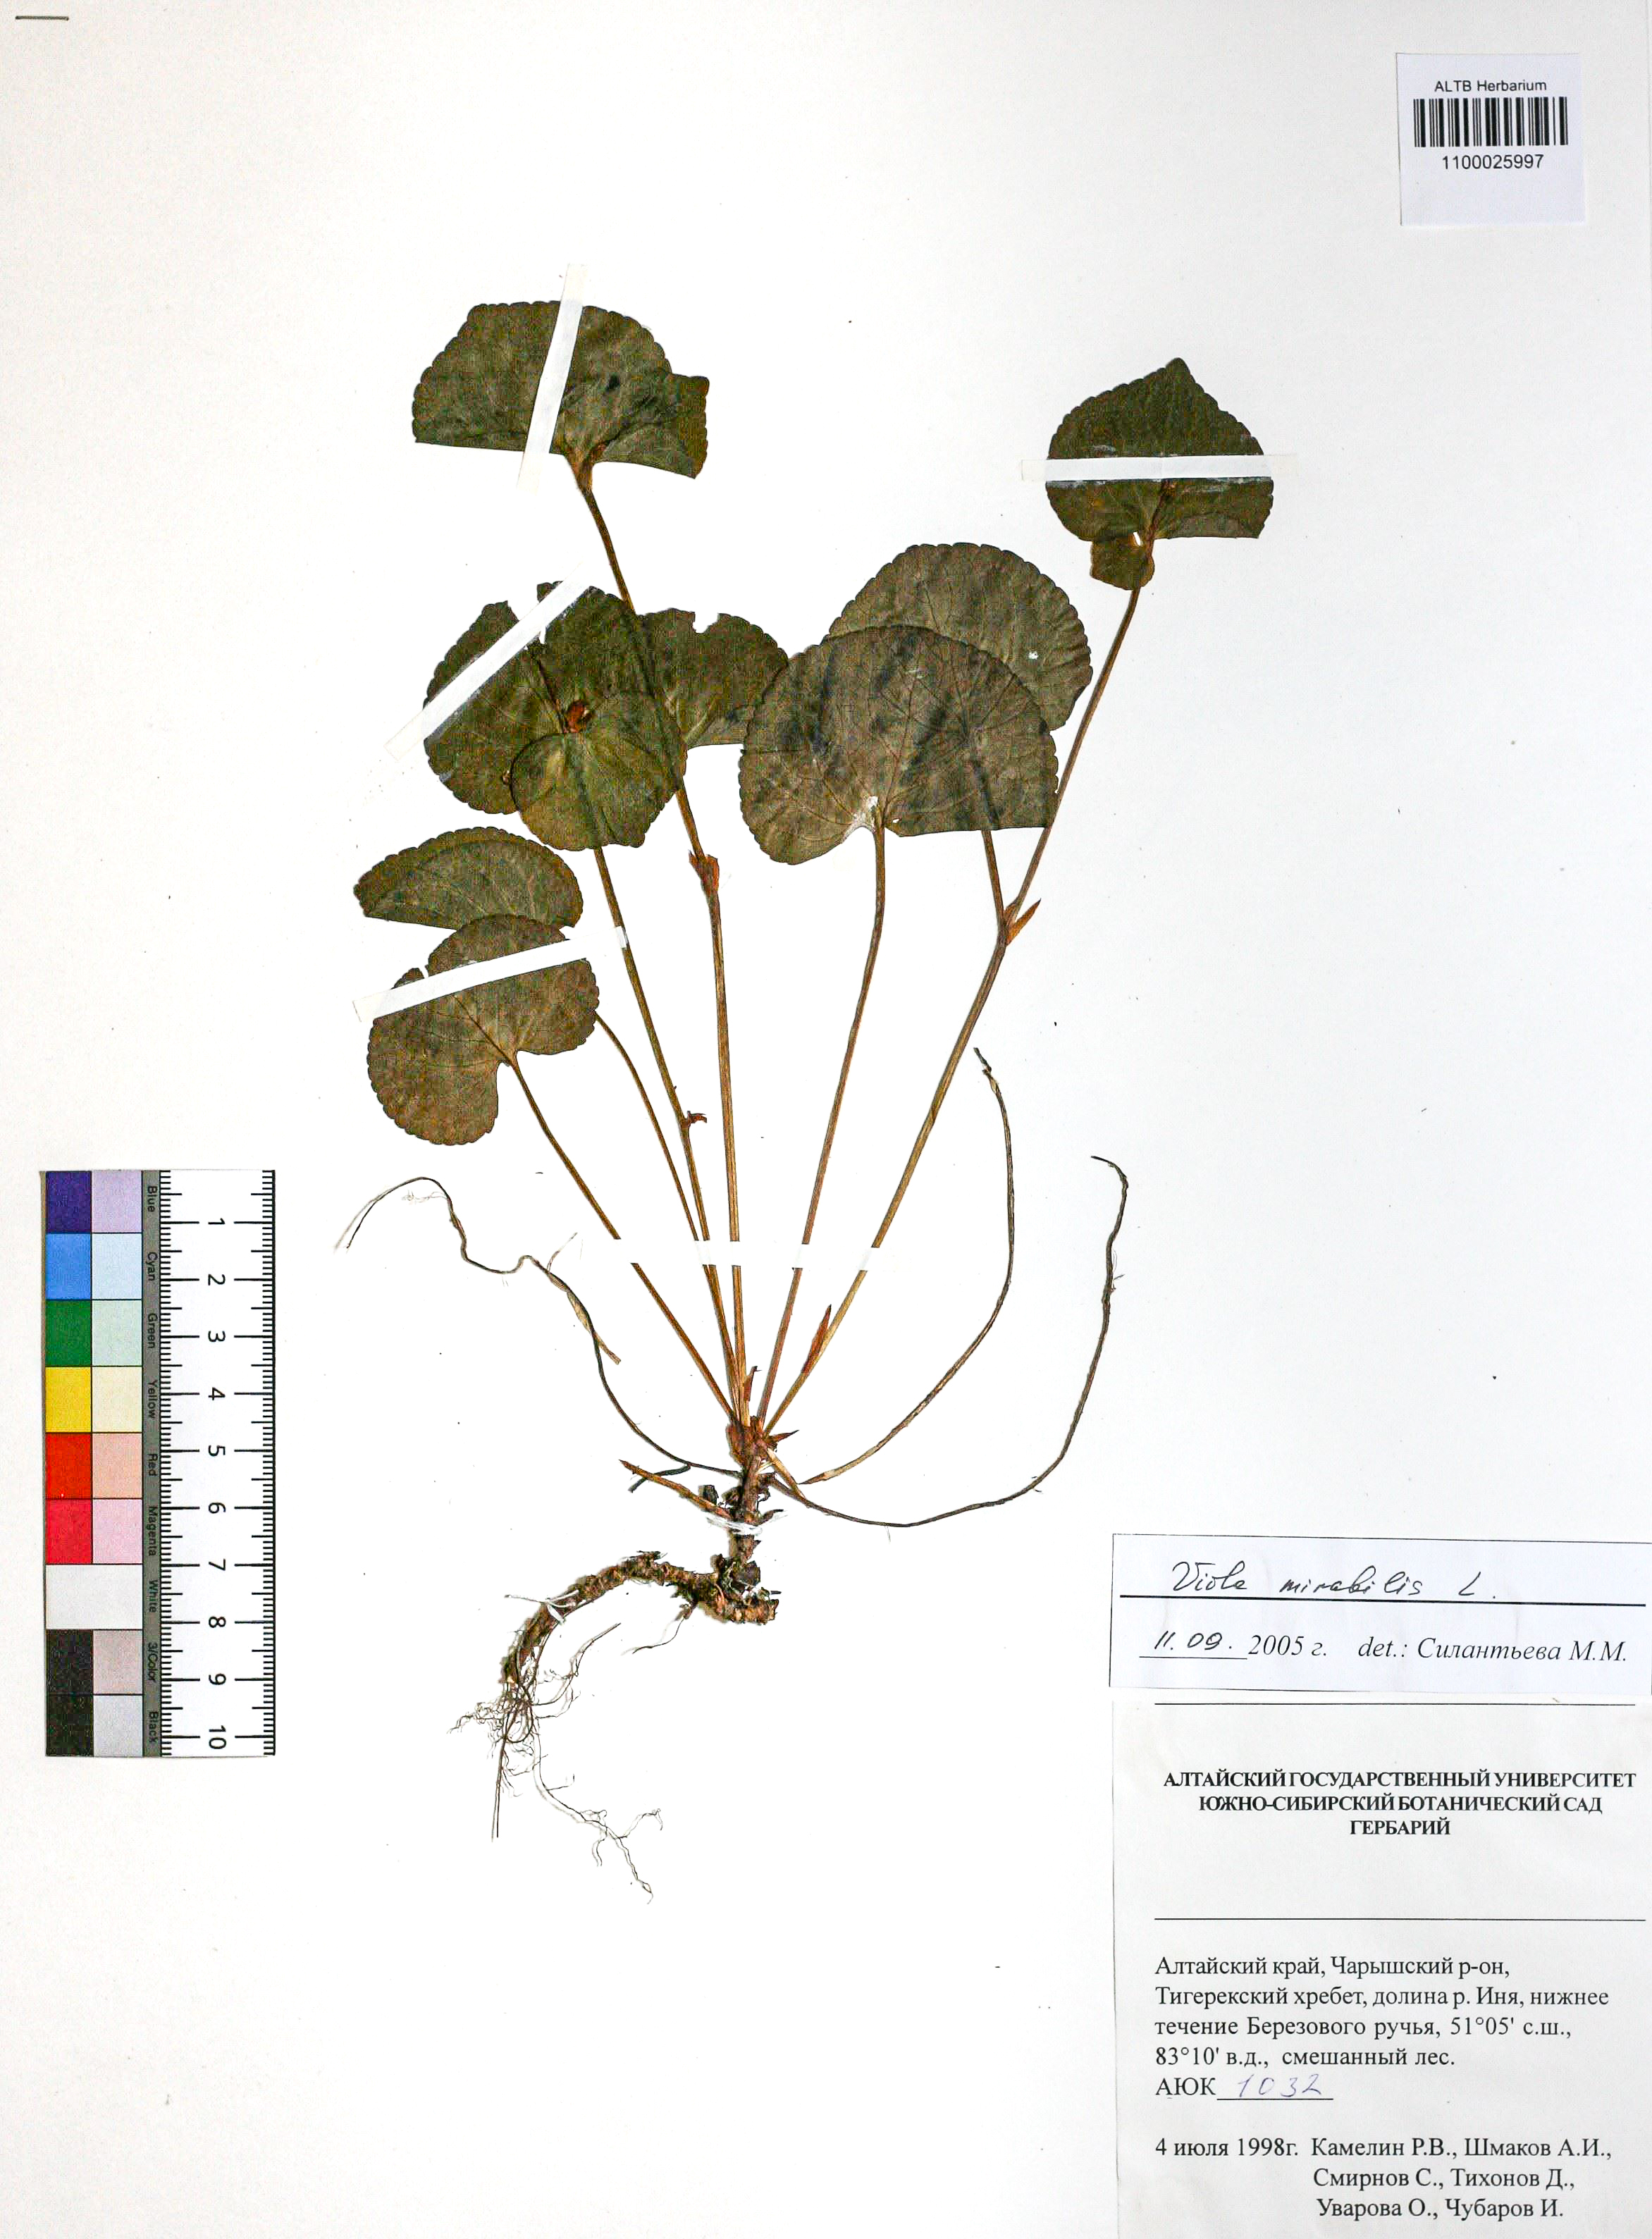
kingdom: Plantae
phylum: Tracheophyta
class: Magnoliopsida
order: Malpighiales
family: Violaceae
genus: Viola
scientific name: Viola mirabilis
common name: Wonder violet
